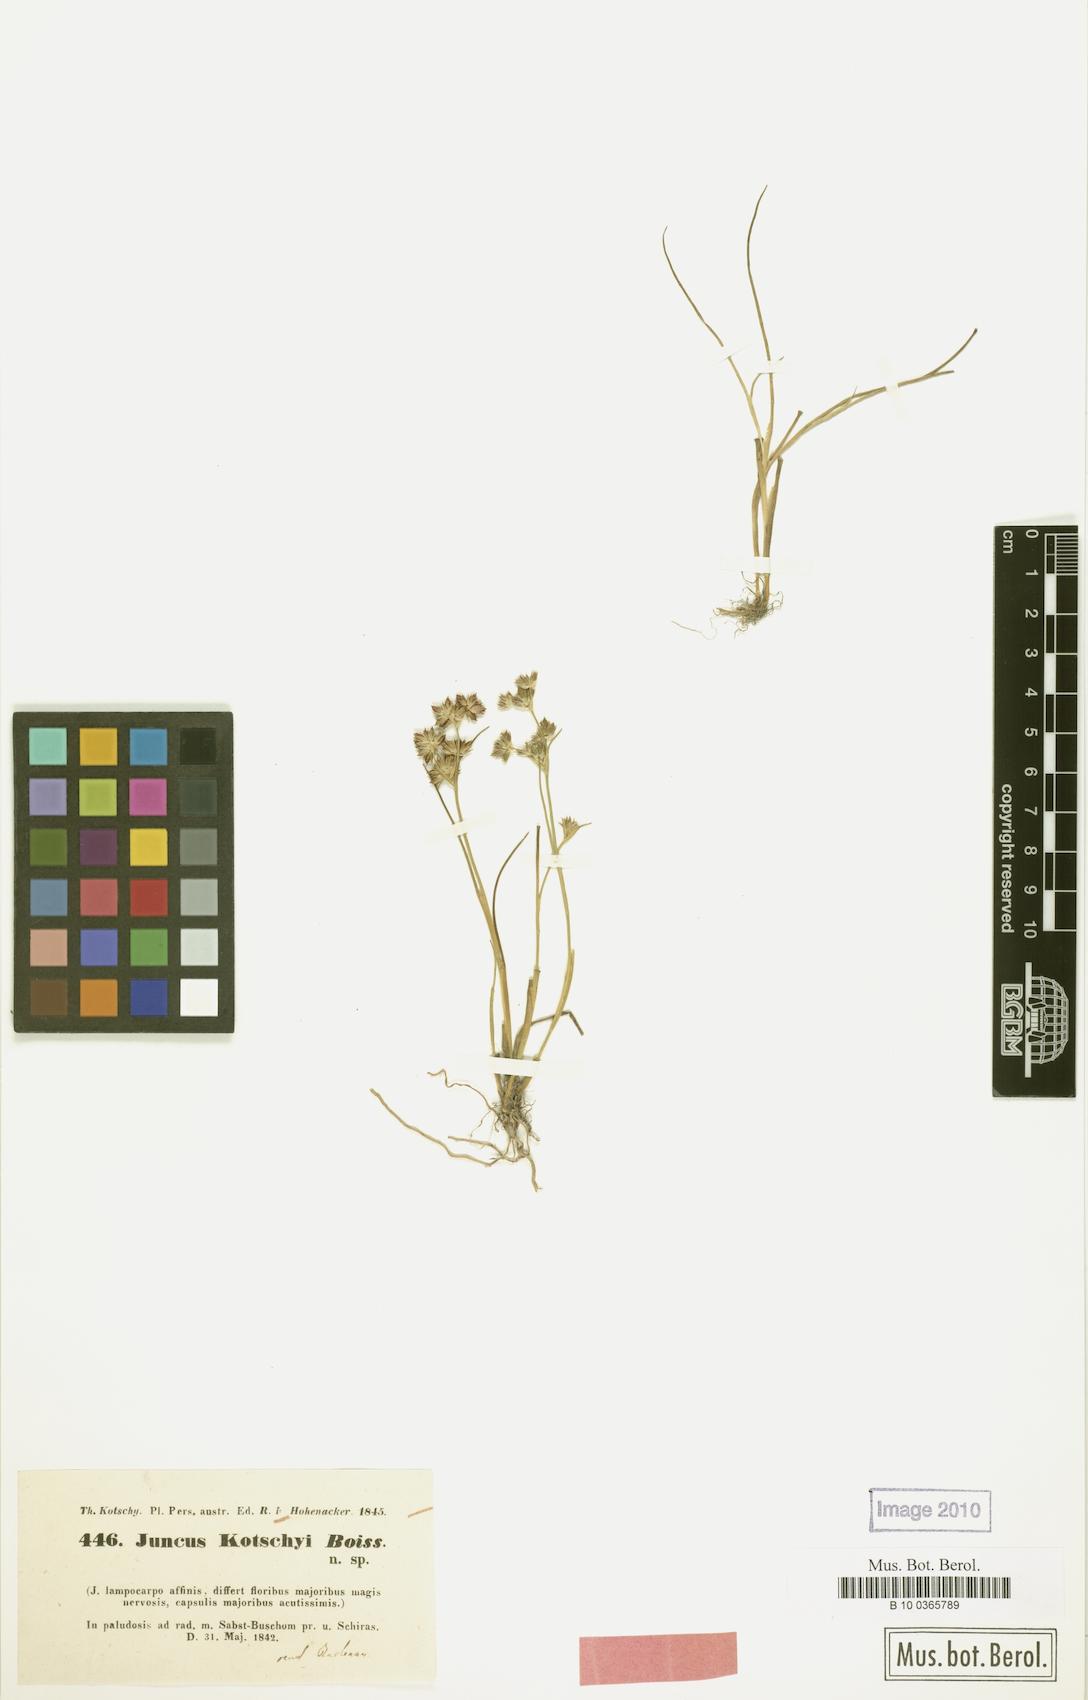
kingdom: Plantae
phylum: Tracheophyta
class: Liliopsida
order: Poales
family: Juncaceae
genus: Juncus
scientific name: Juncus fontanesii
